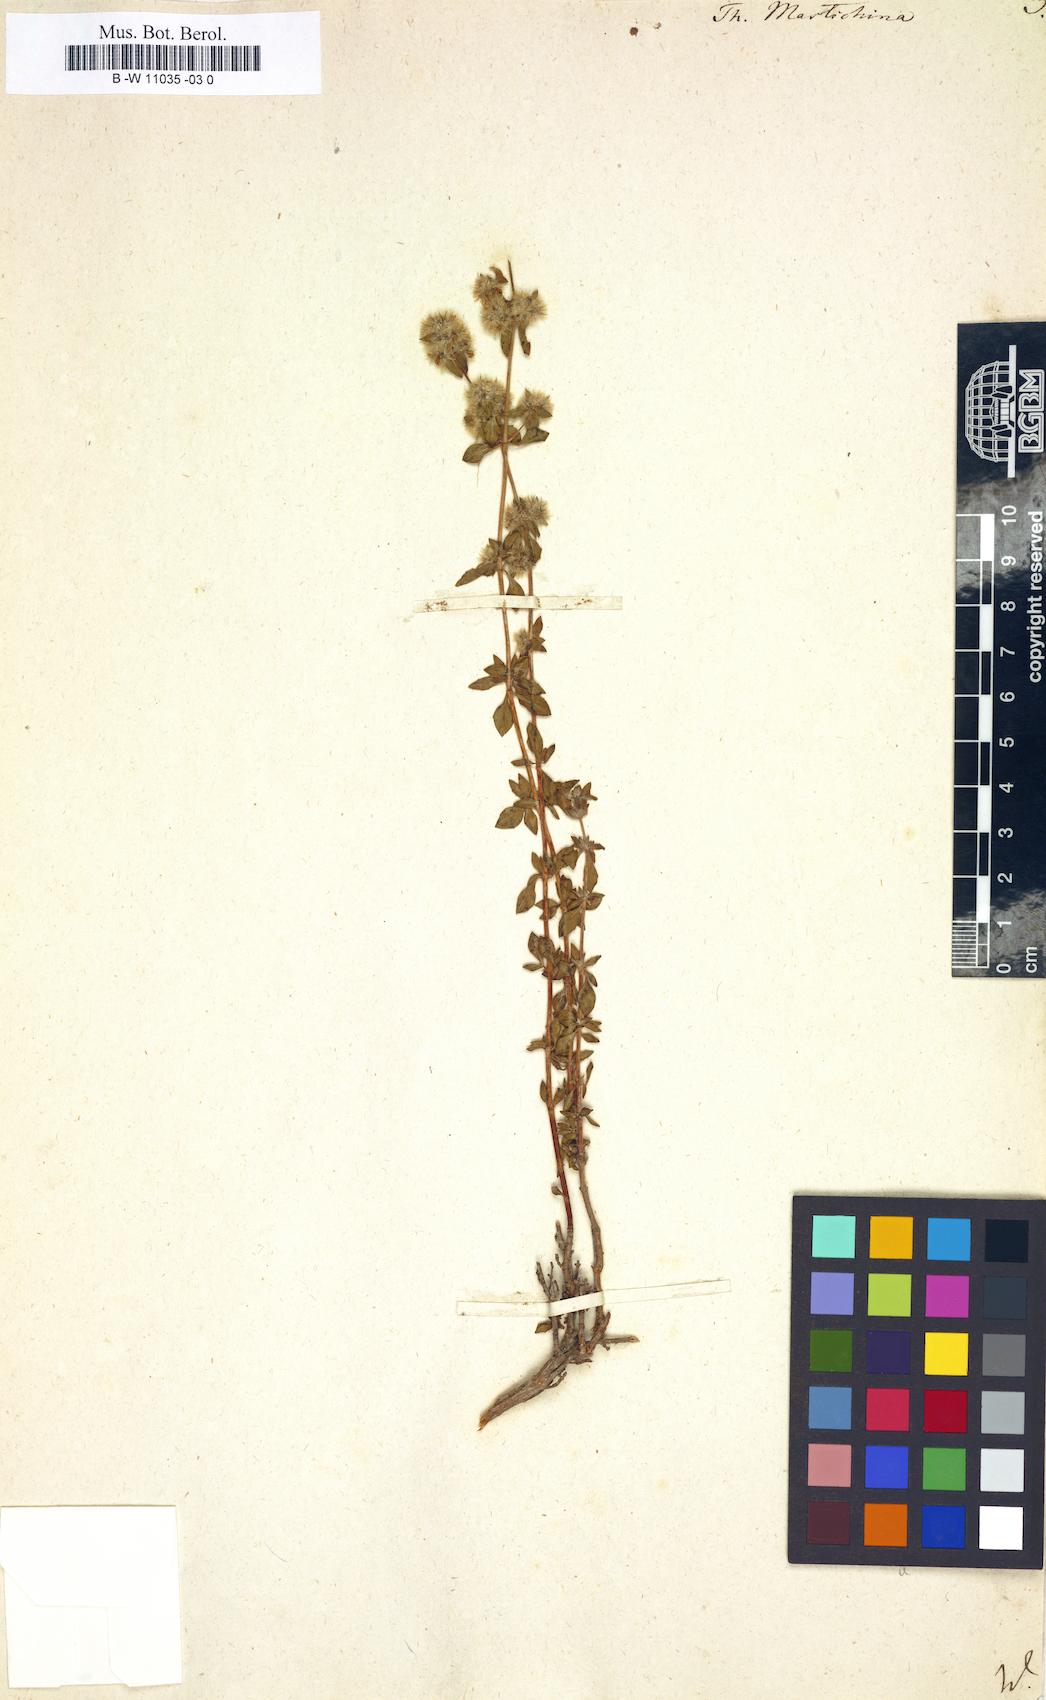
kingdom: Plantae
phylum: Tracheophyta
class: Magnoliopsida
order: Lamiales
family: Lamiaceae
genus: Thymus
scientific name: Thymus mastichina
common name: Mastic thyme
